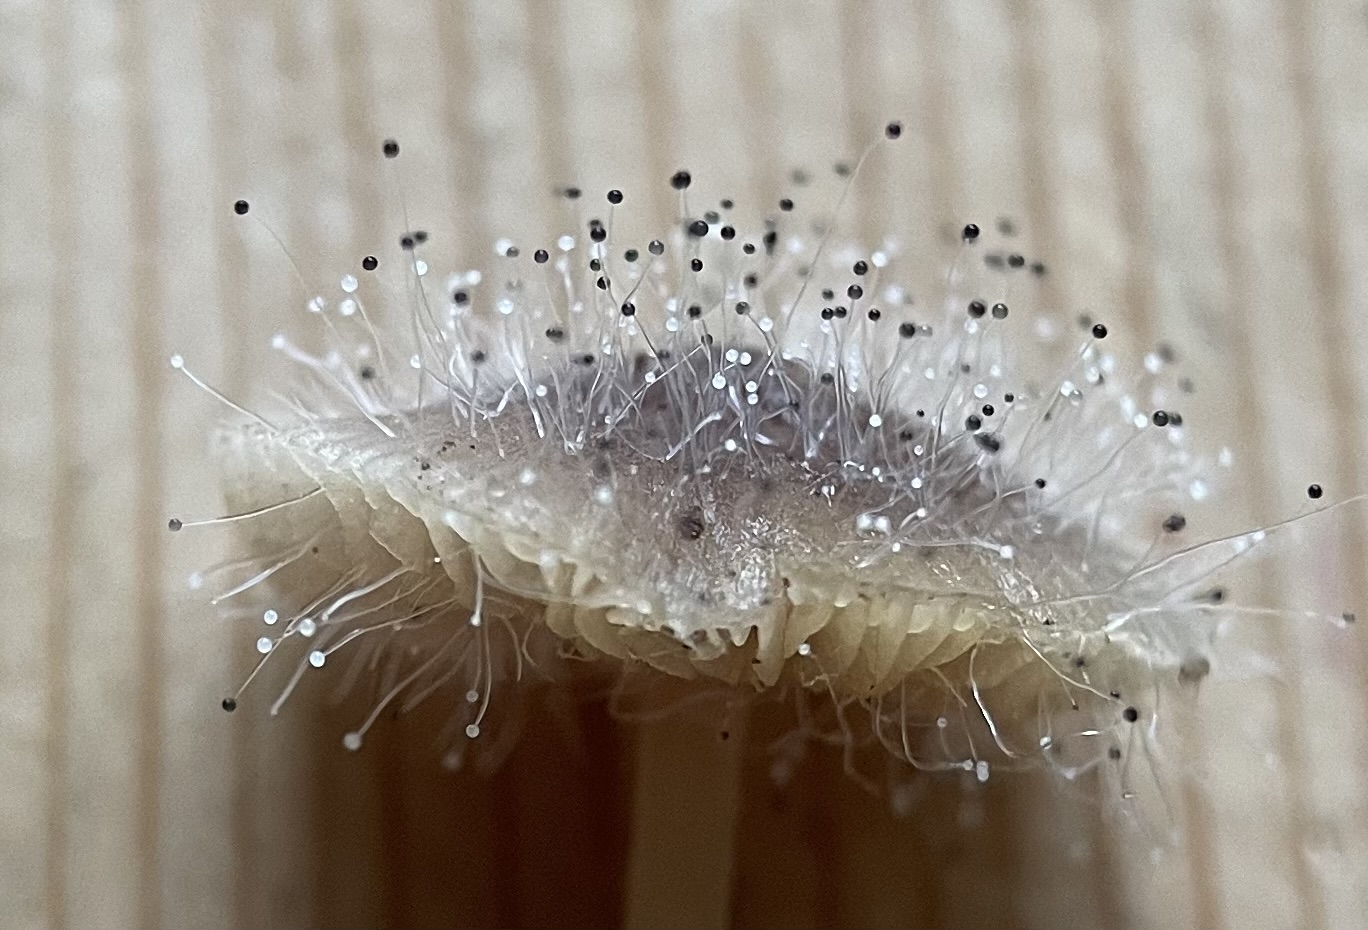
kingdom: Fungi
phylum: Mucoromycota
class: Mucoromycetes
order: Mucorales
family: Phycomycetaceae
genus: Spinellus
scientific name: Spinellus fusiger
